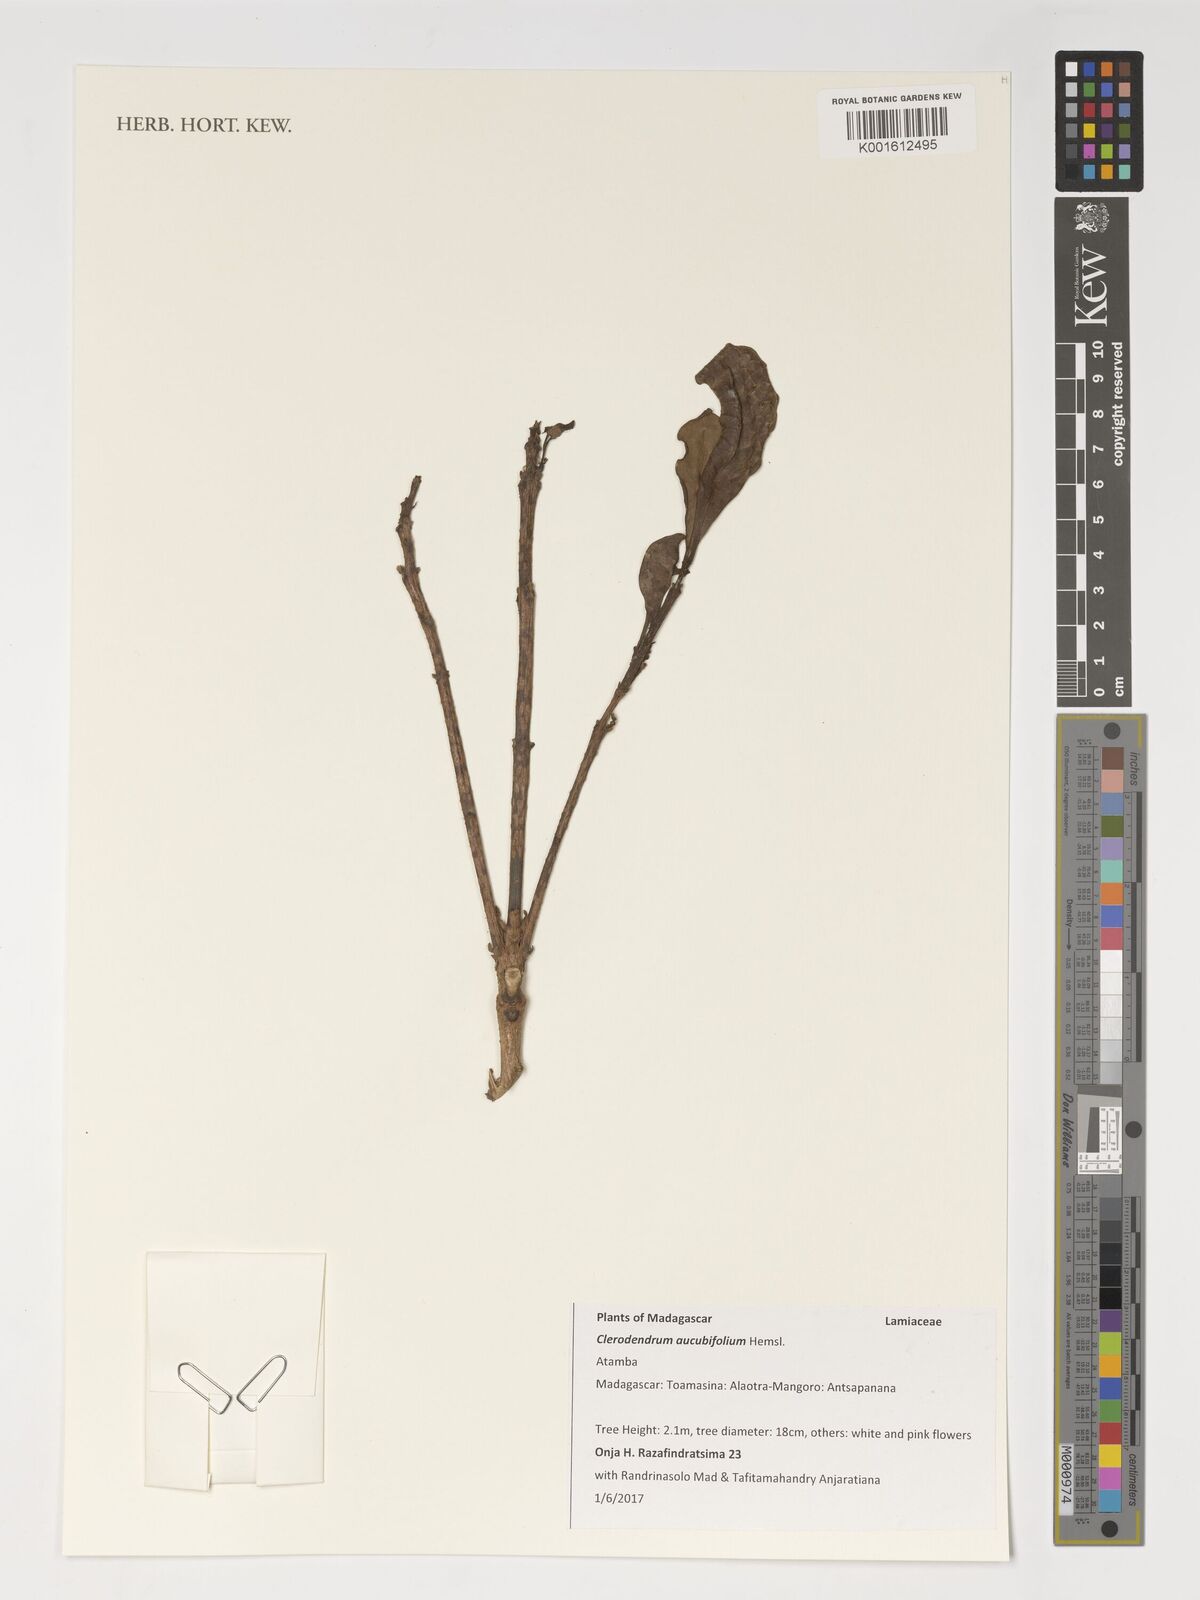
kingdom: Plantae
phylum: Tracheophyta
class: Magnoliopsida
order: Lamiales
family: Lamiaceae
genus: Clerodendrum
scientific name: Clerodendrum aucubifolium
